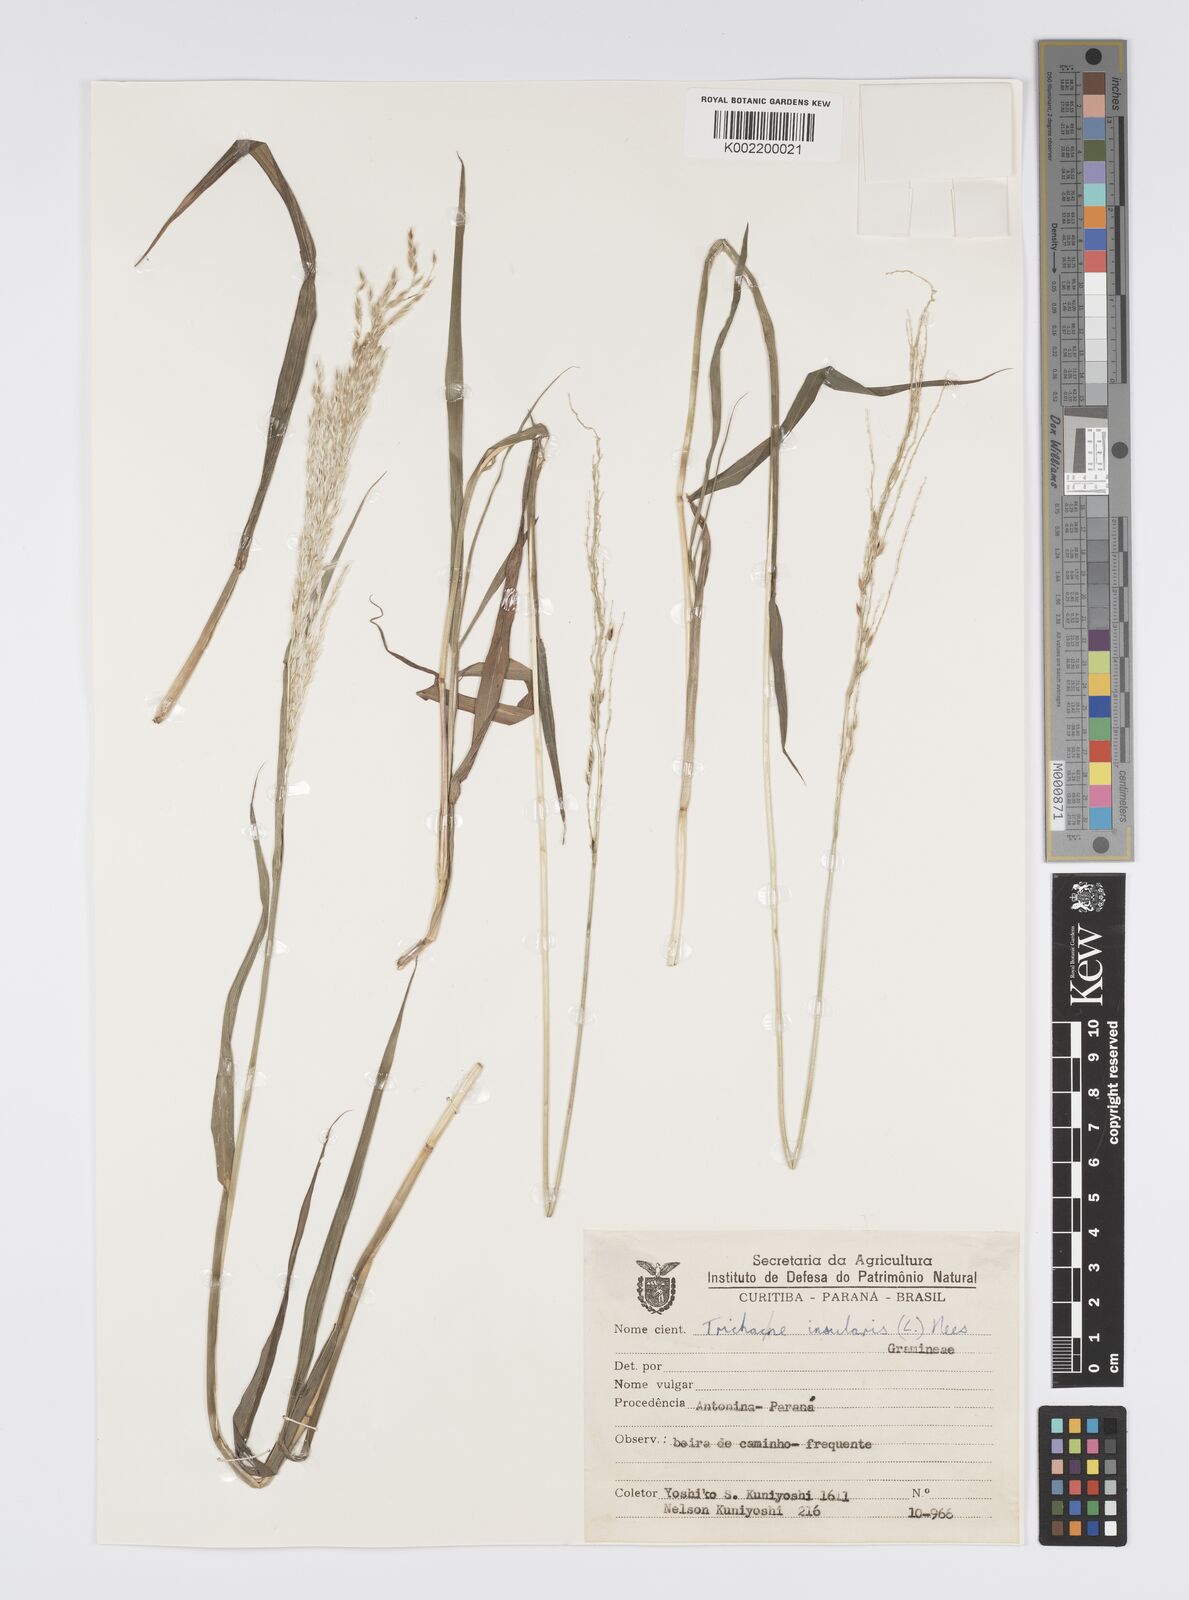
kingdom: Plantae
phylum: Tracheophyta
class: Liliopsida
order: Poales
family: Poaceae
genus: Digitaria
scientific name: Digitaria insularis
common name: Sourgrass
